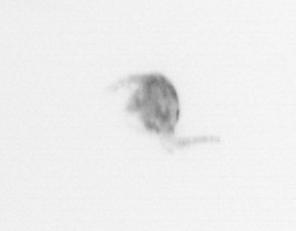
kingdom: Animalia
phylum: Arthropoda
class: Copepoda
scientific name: Copepoda
